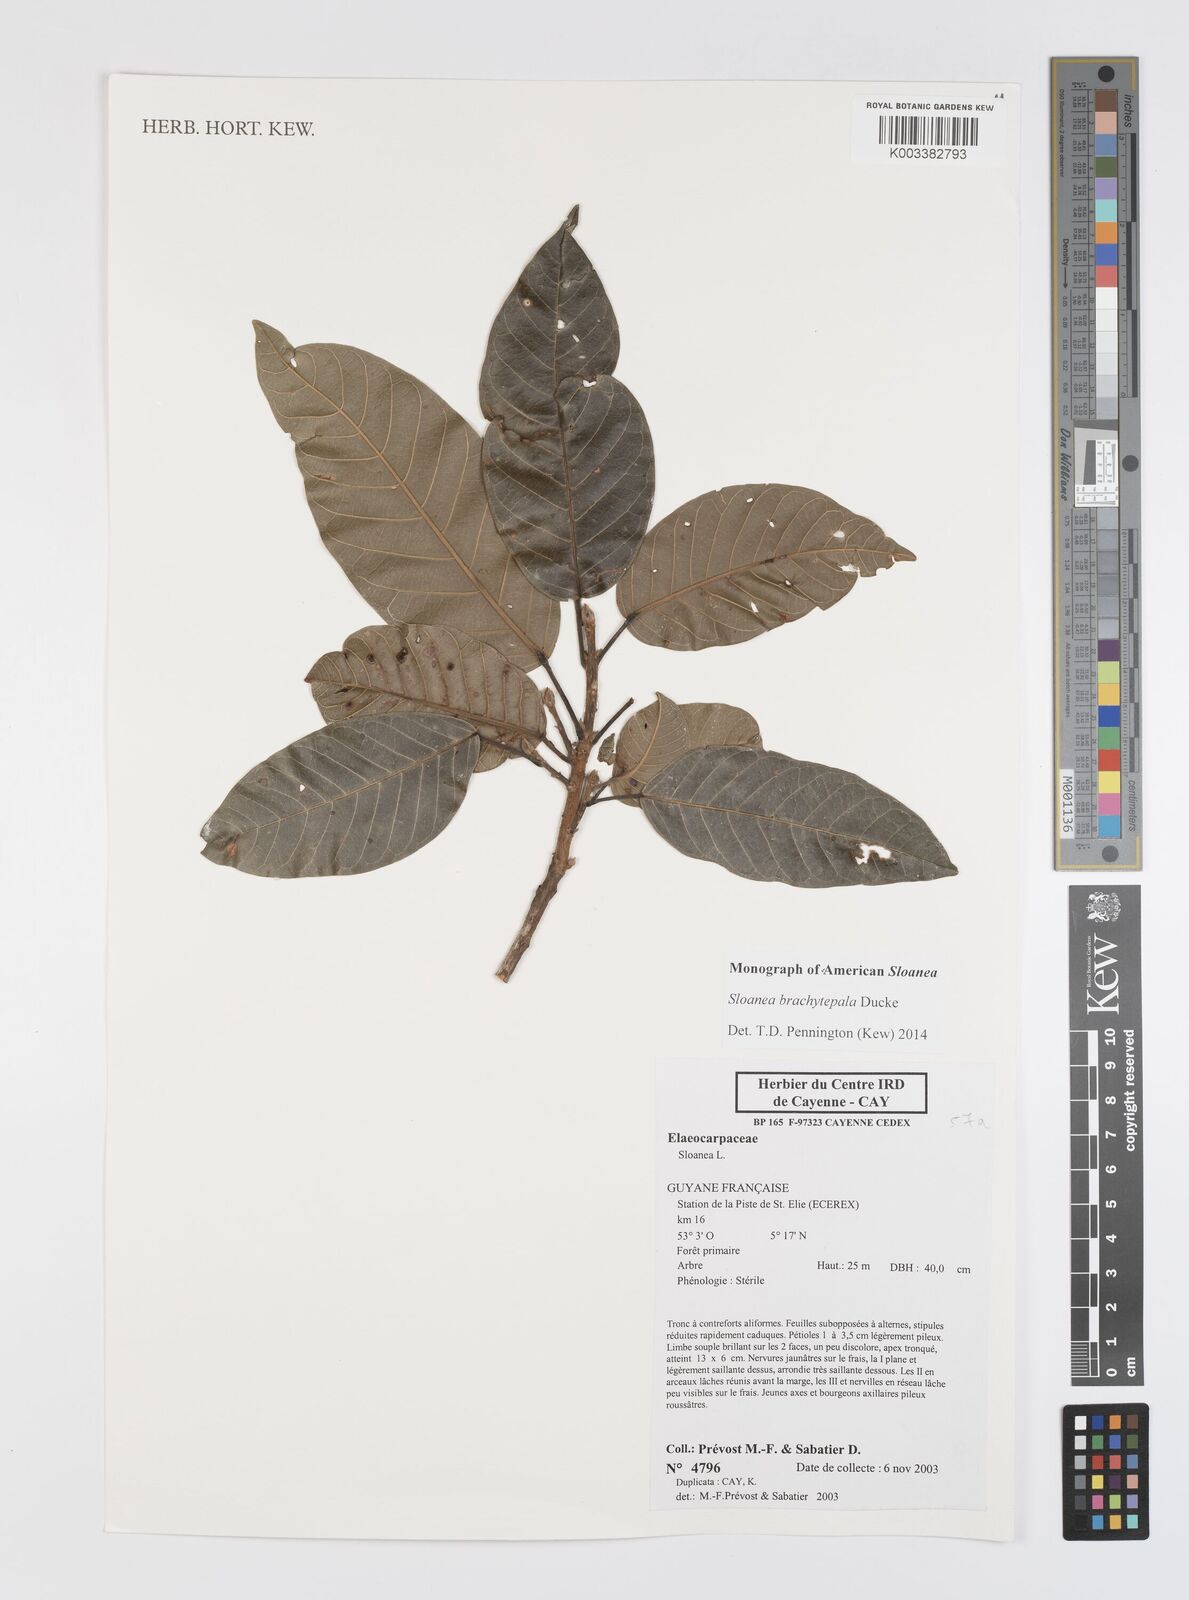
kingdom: Plantae
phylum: Tracheophyta
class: Magnoliopsida
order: Oxalidales
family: Elaeocarpaceae
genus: Sloanea
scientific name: Sloanea brachytepala
